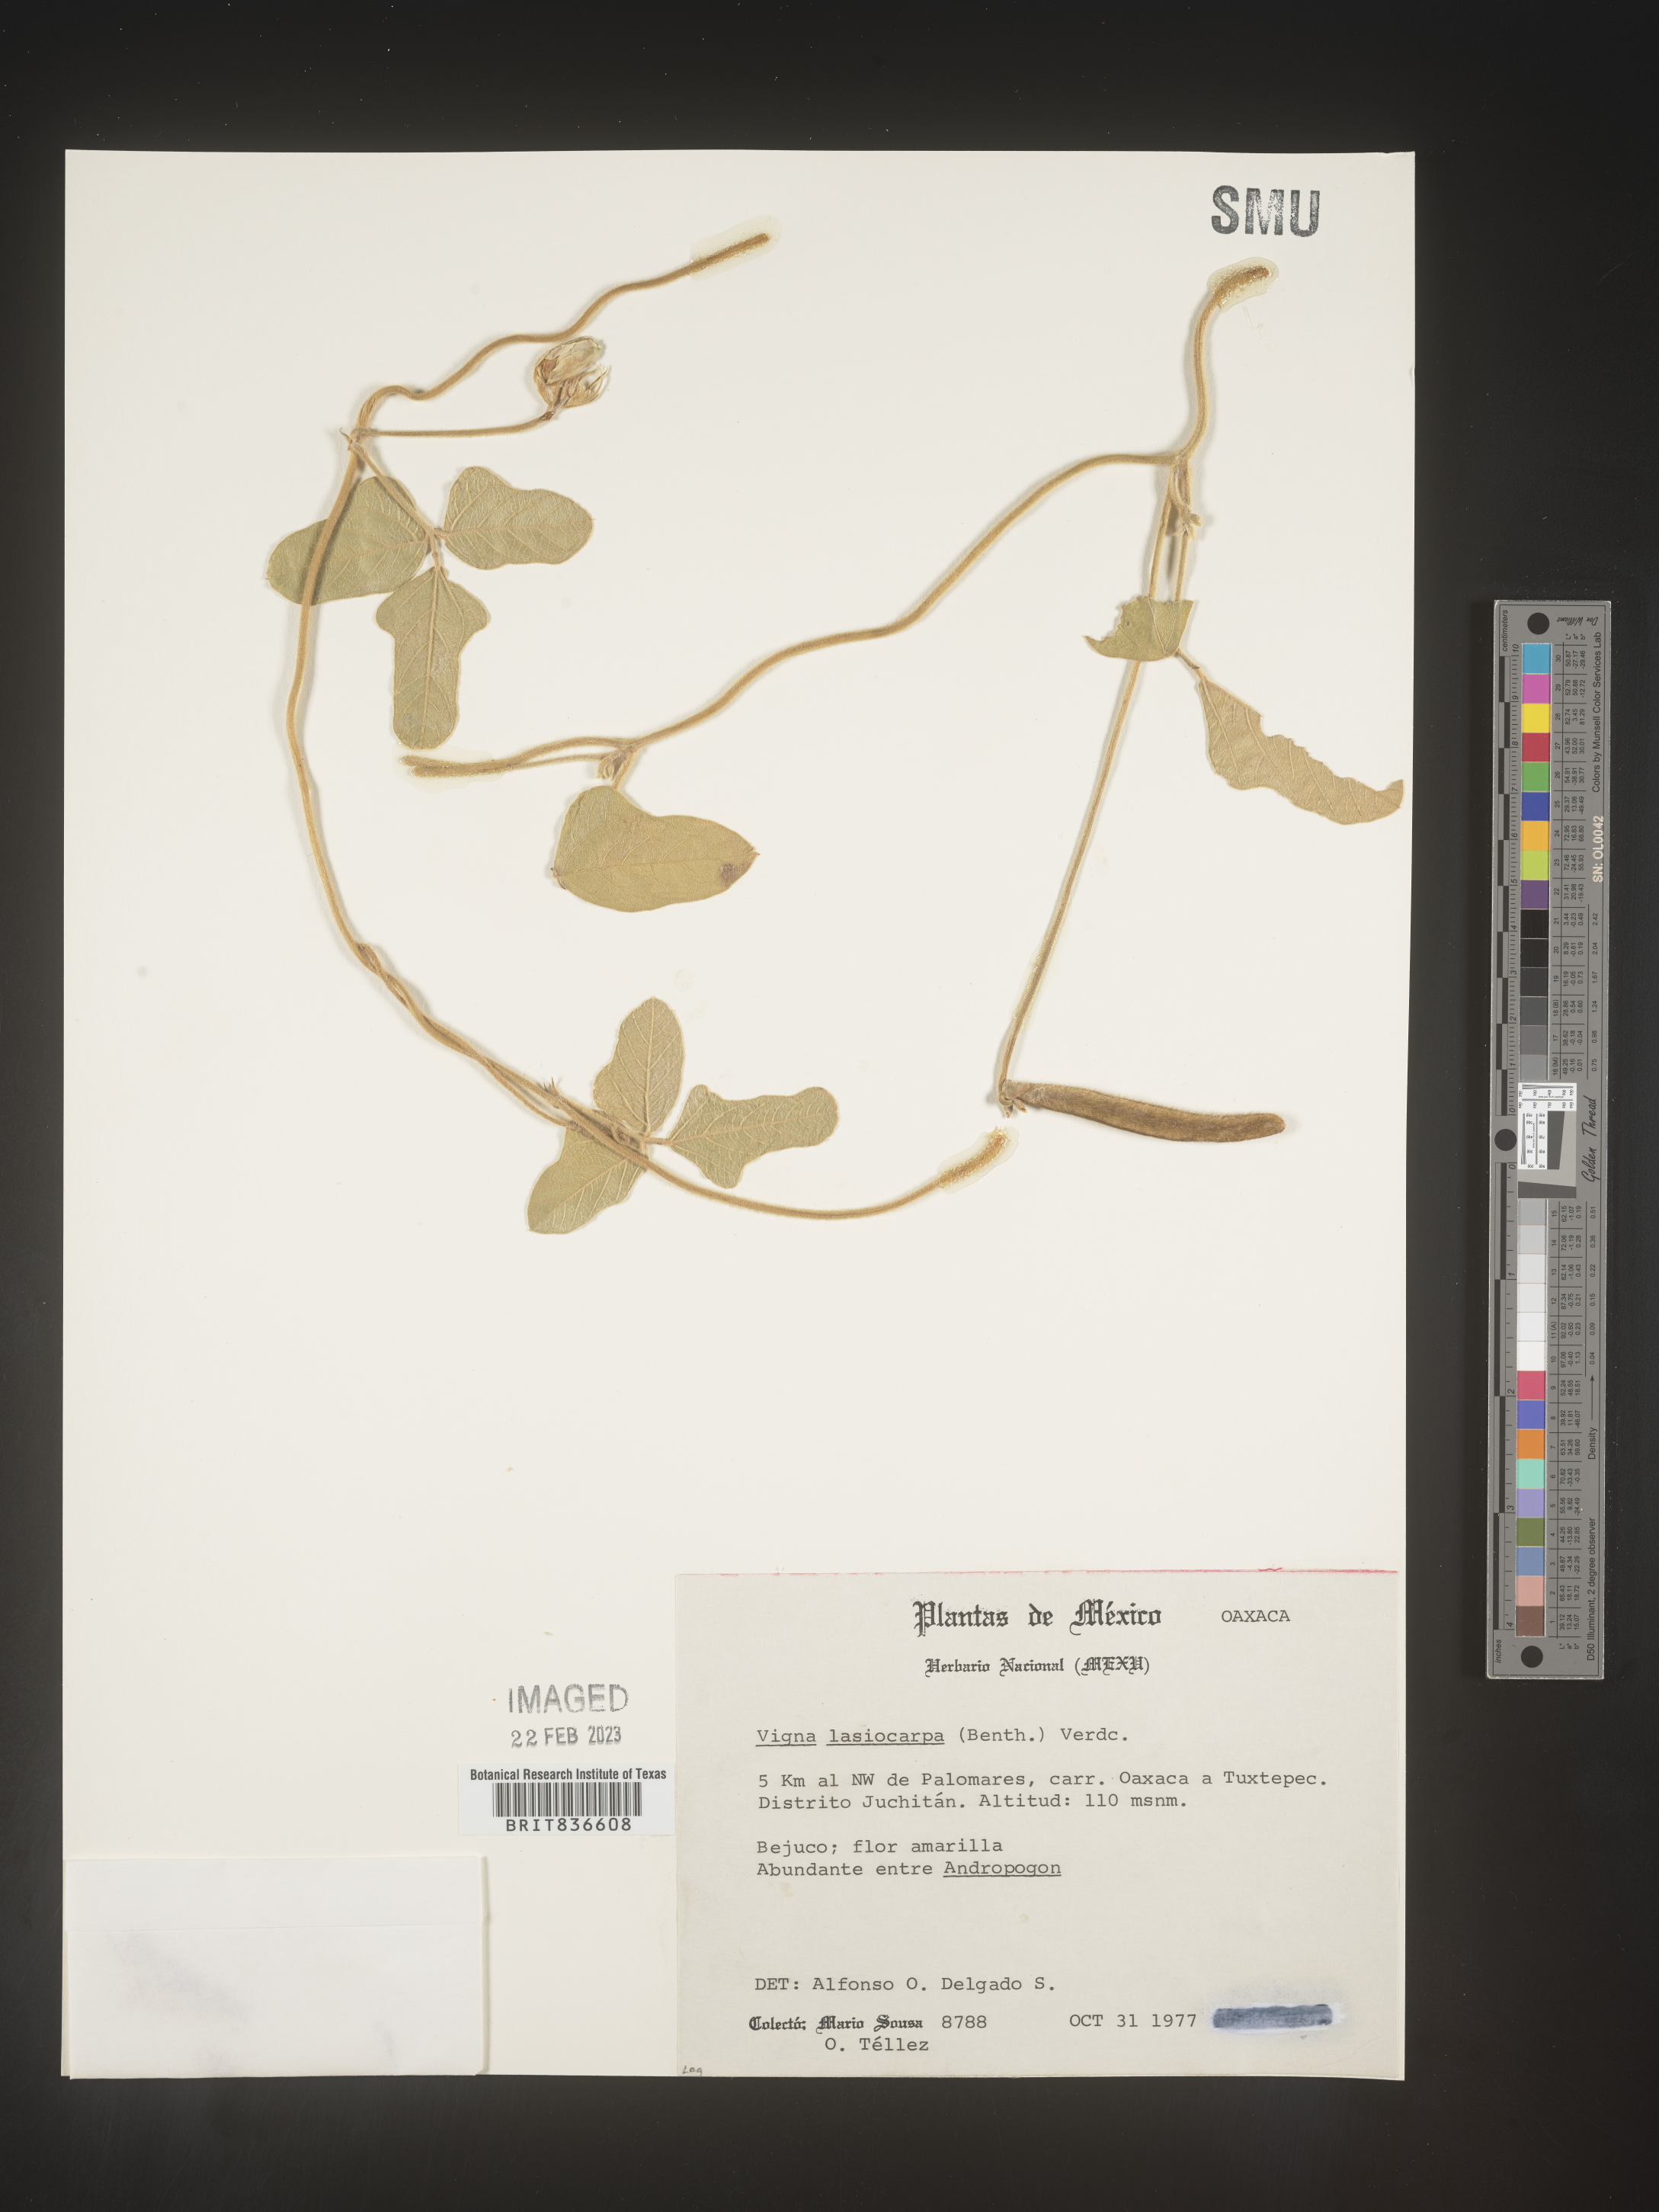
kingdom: Plantae
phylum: Tracheophyta
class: Magnoliopsida
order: Fabales
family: Fabaceae
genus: Vigna
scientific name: Vigna
